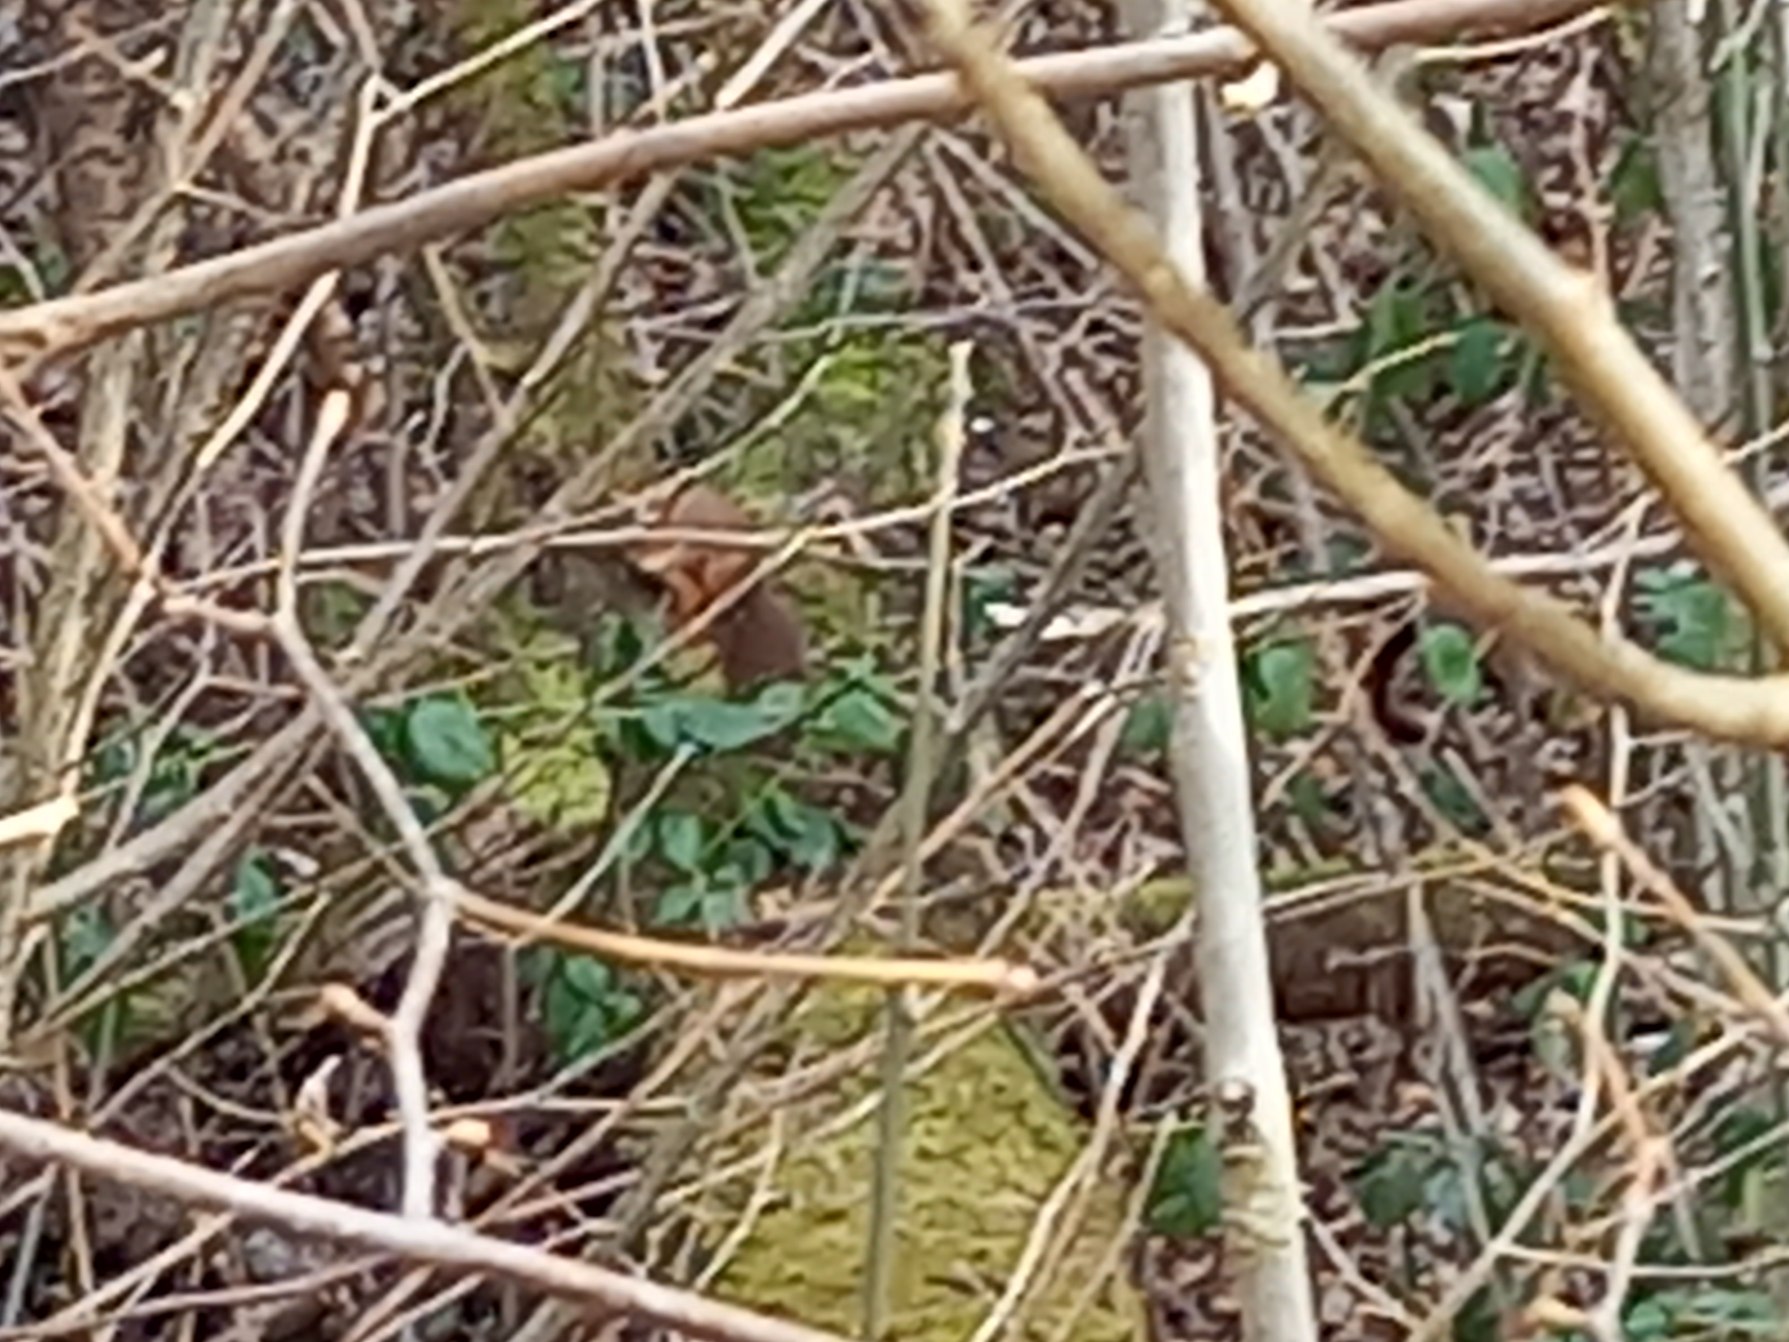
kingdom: Animalia
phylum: Chordata
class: Mammalia
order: Rodentia
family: Sciuridae
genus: Sciurus
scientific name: Sciurus vulgaris
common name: Egern
